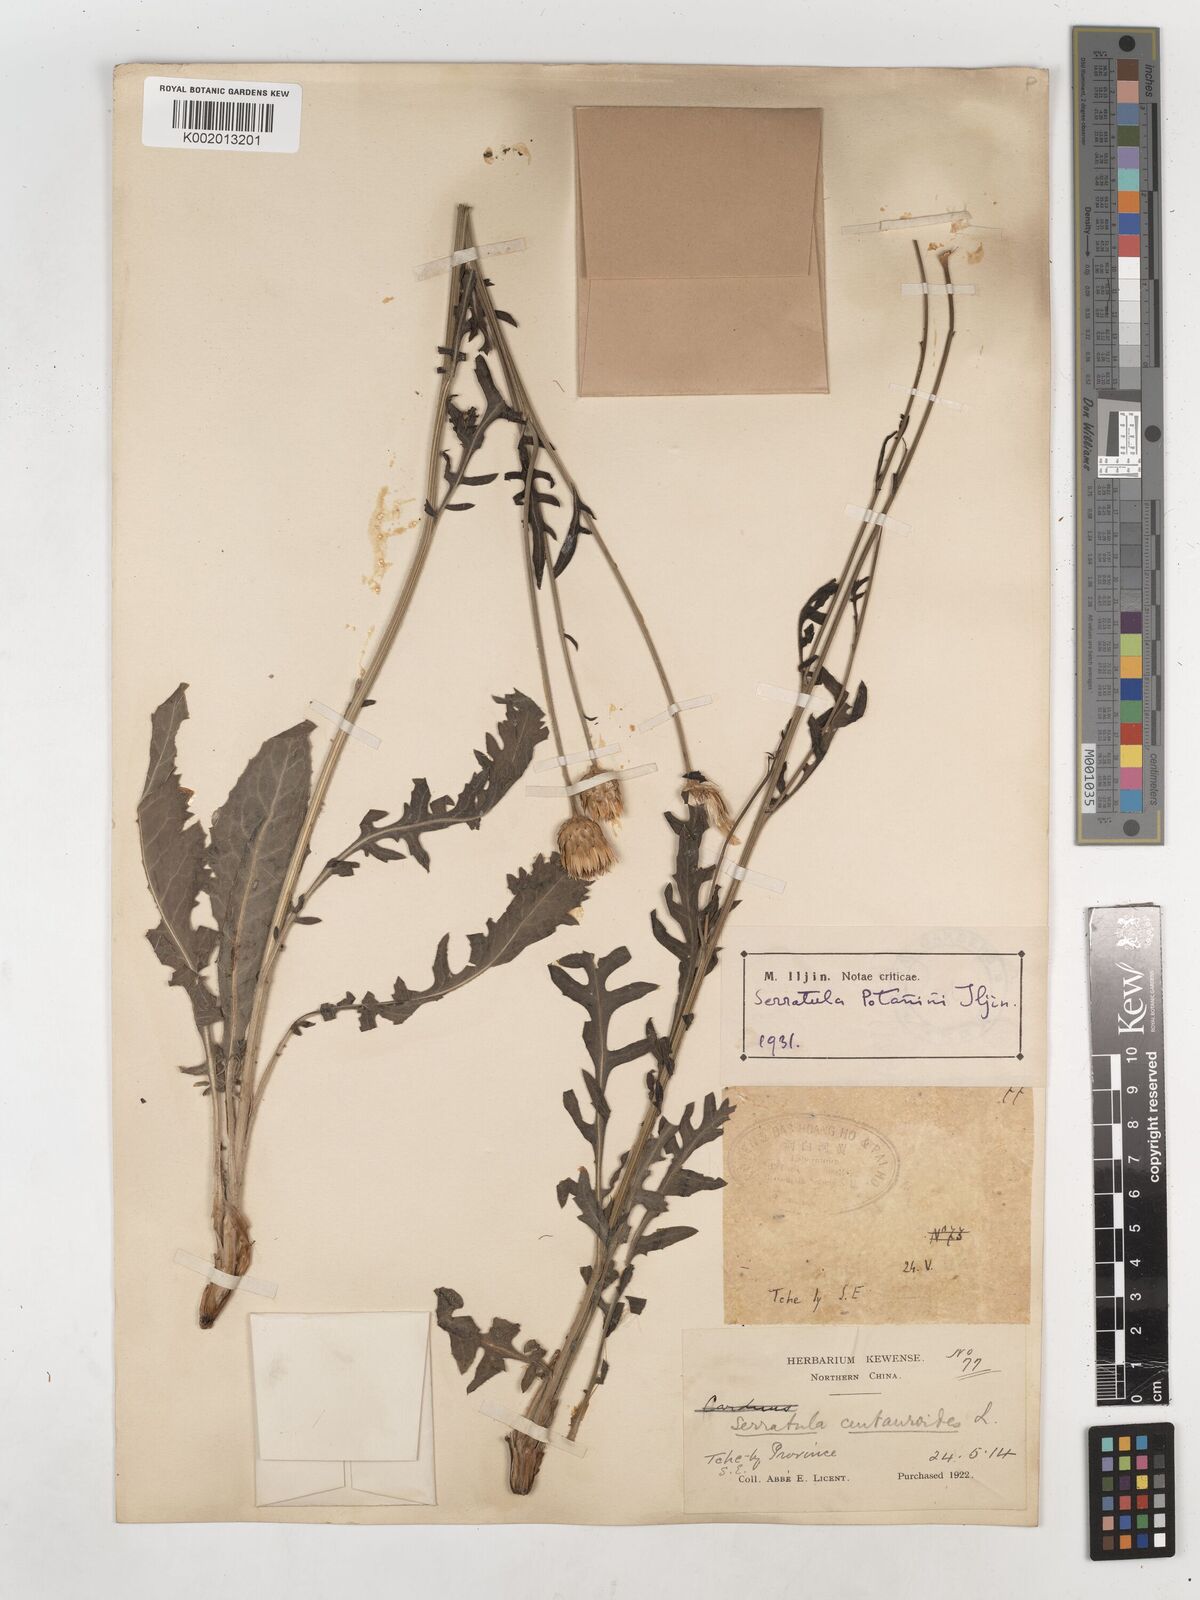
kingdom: Plantae
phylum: Tracheophyta
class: Magnoliopsida
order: Asterales
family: Asteraceae
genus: Klasea
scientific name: Klasea centauroides
